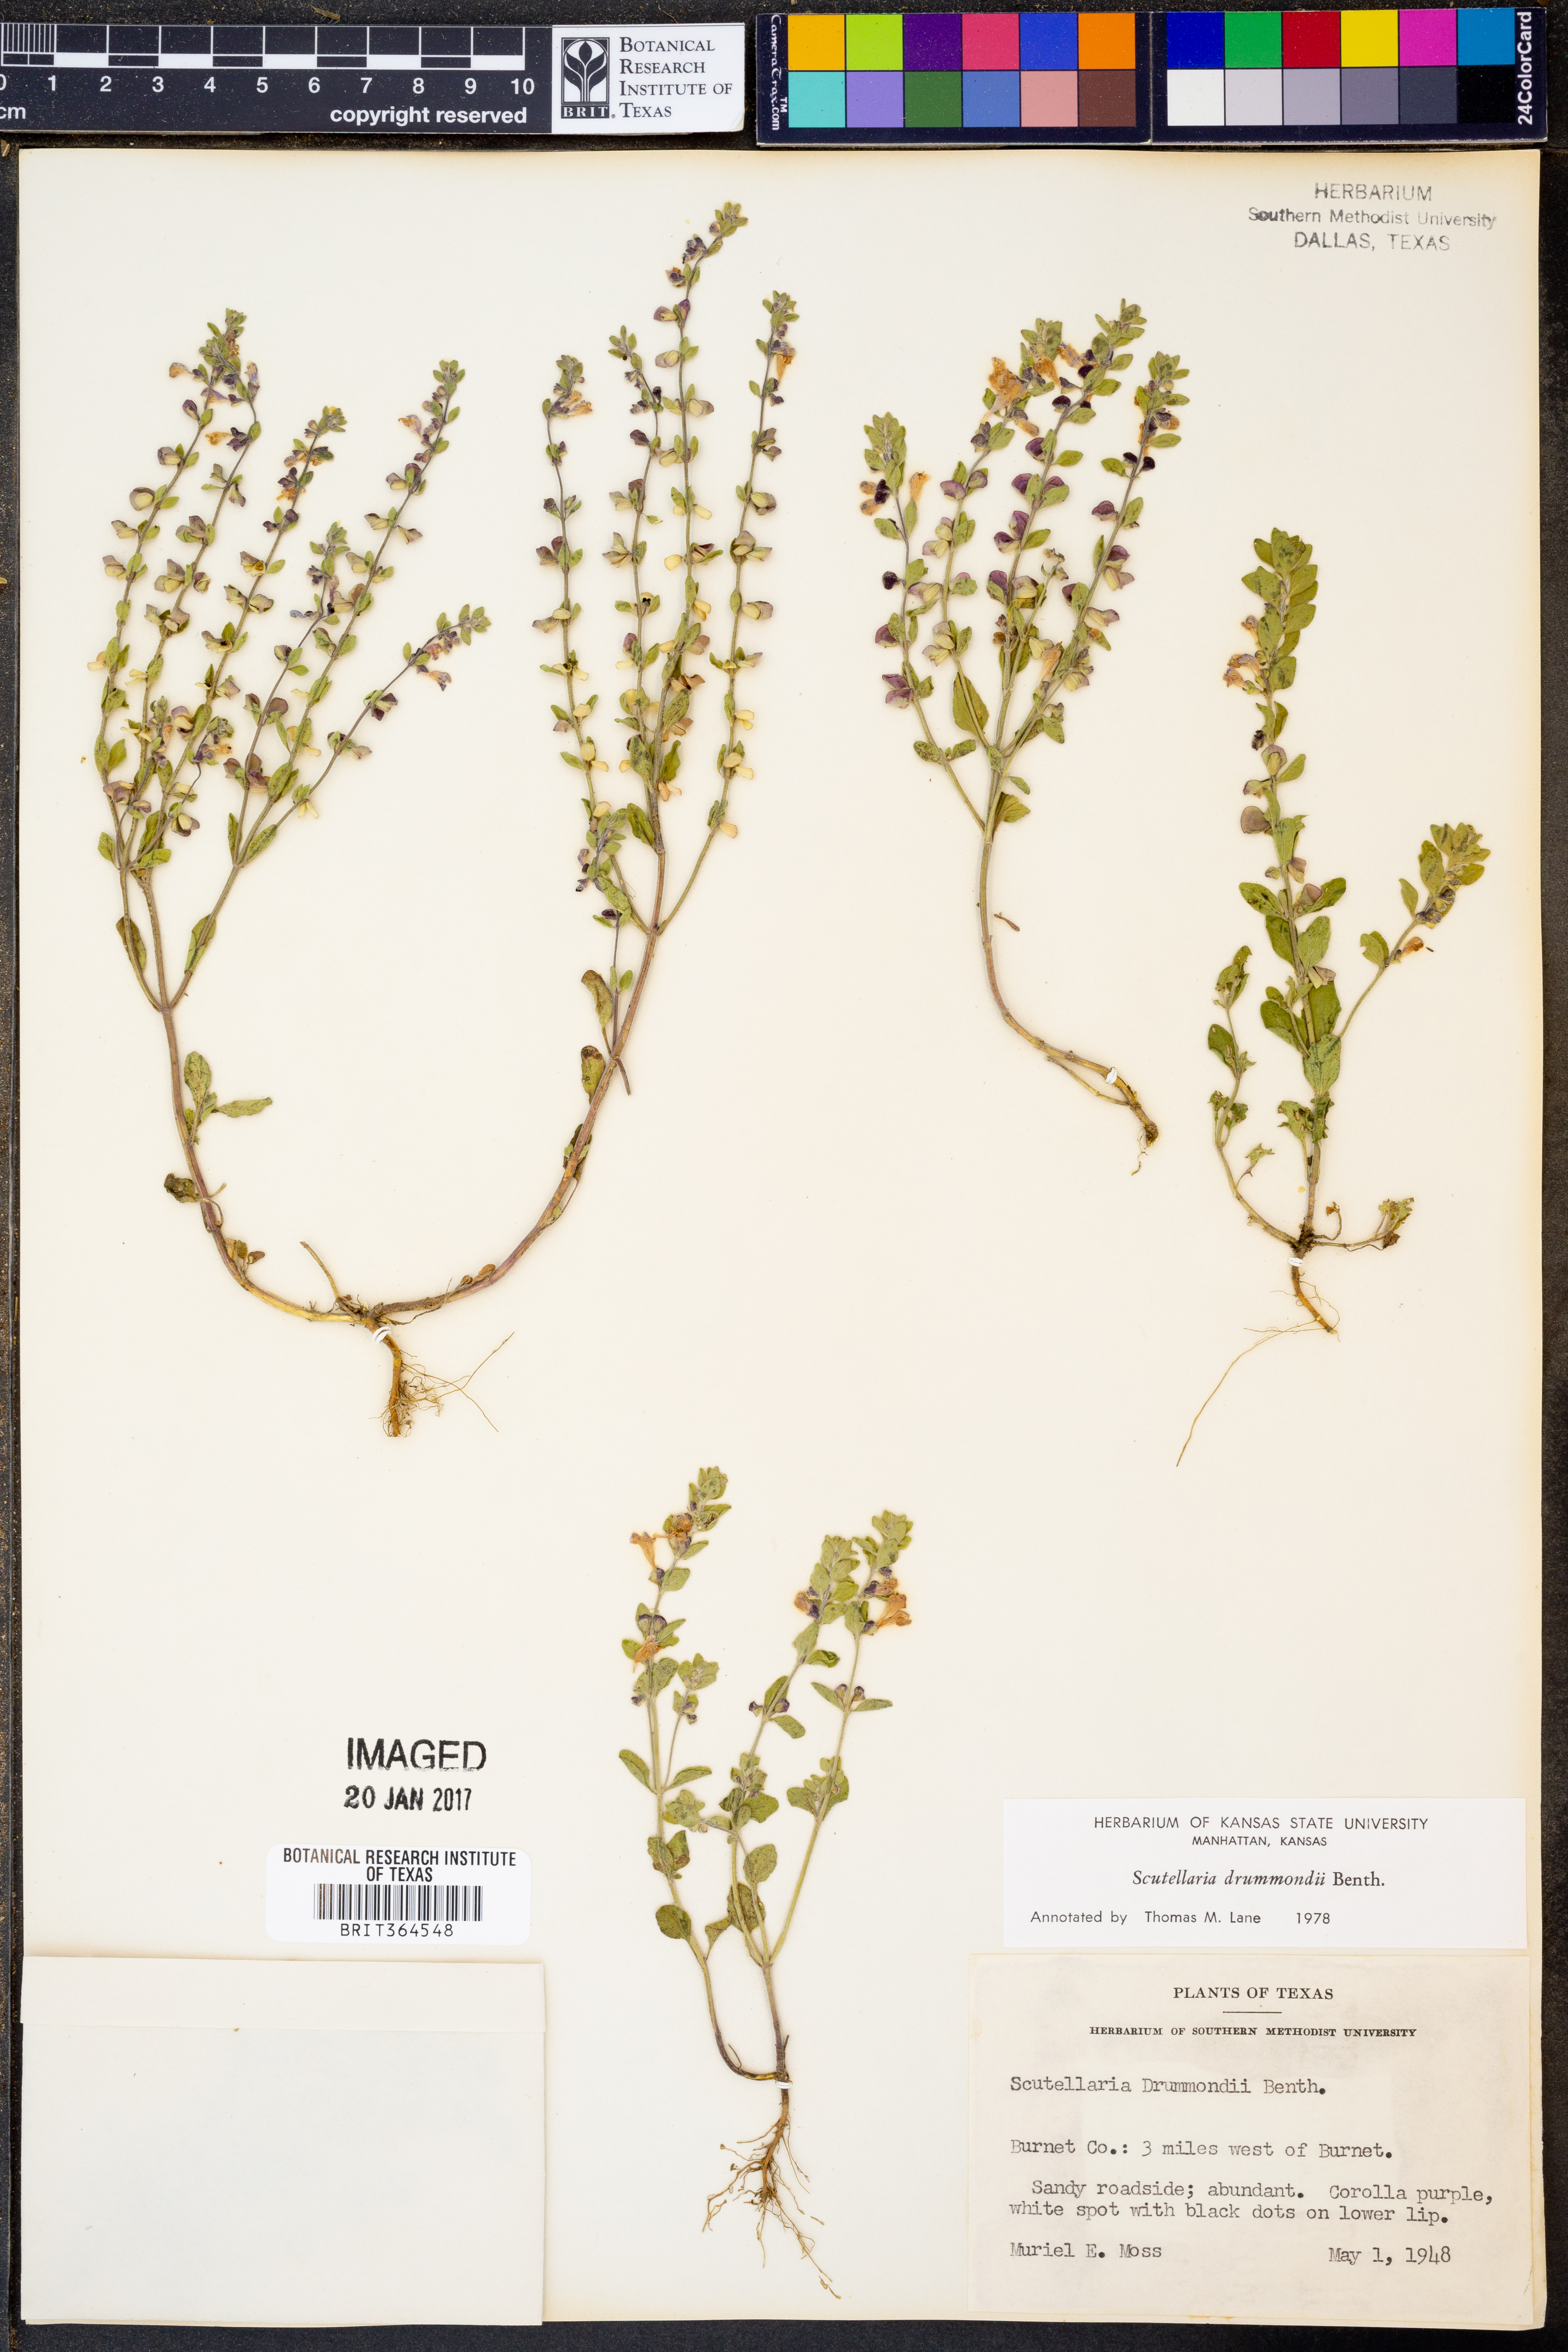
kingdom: Plantae
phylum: Tracheophyta
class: Magnoliopsida
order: Lamiales
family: Lamiaceae
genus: Scutellaria
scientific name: Scutellaria drummondii
